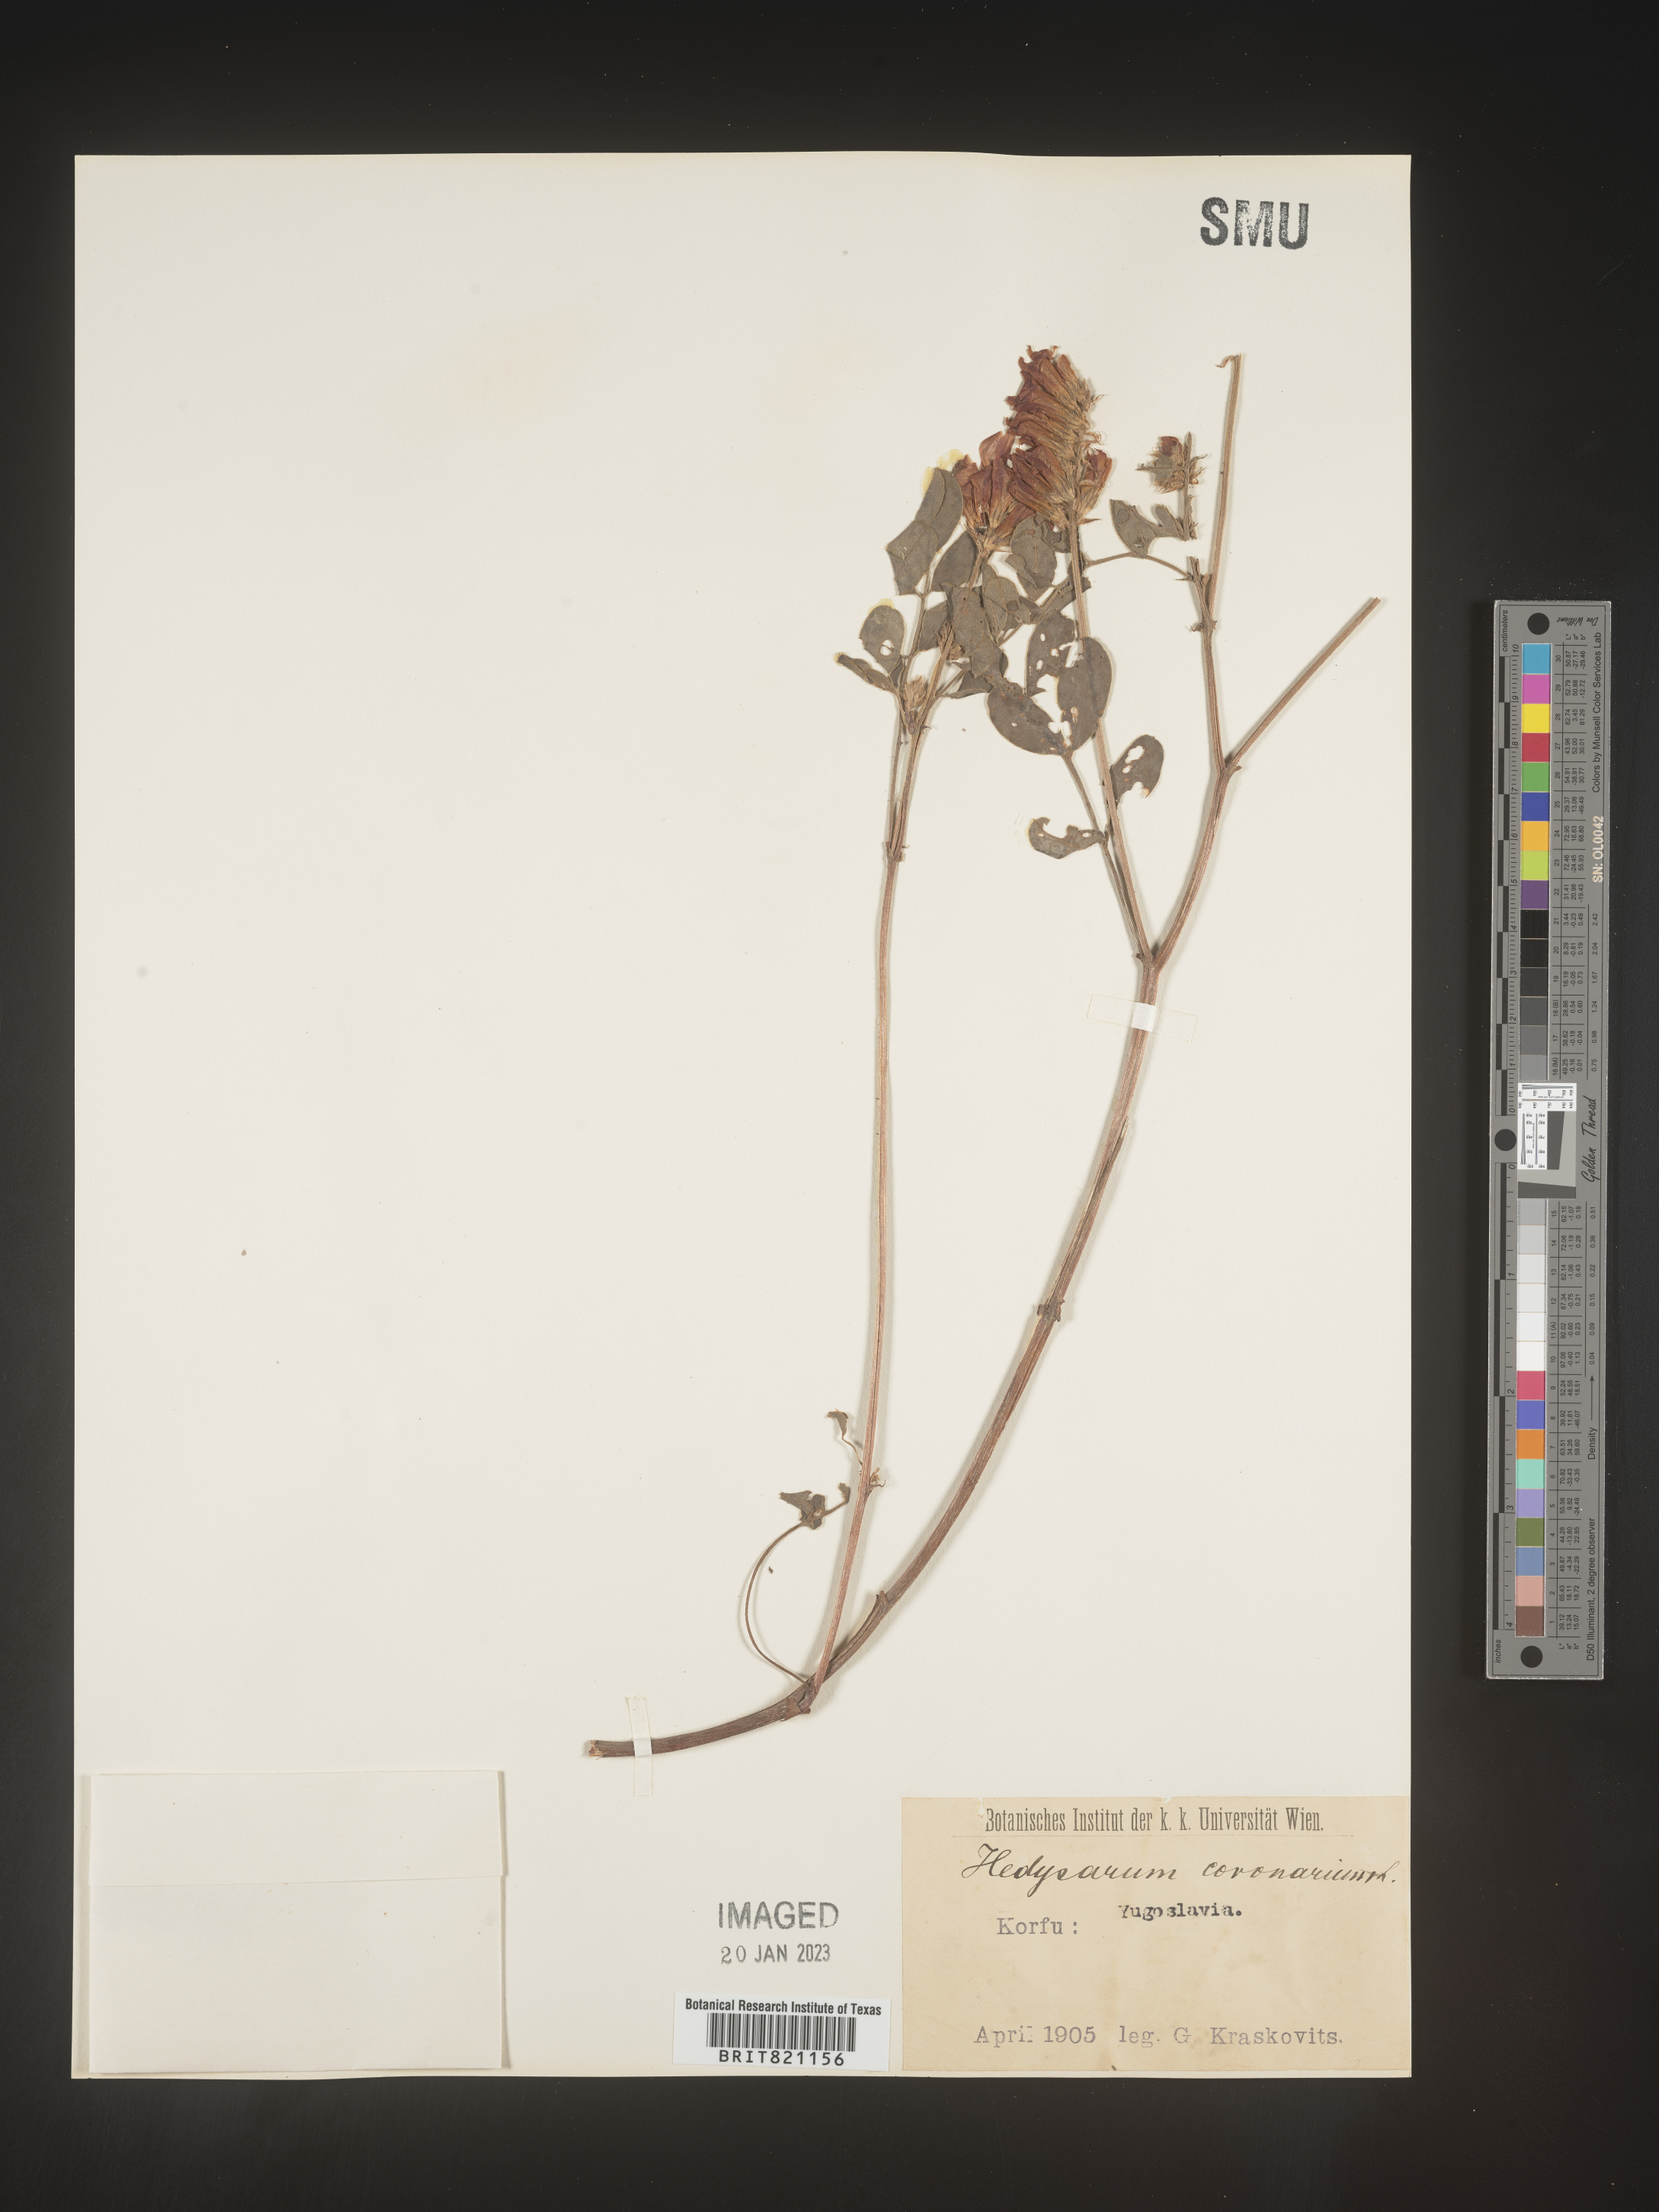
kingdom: Plantae
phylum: Tracheophyta
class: Magnoliopsida
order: Fabales
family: Fabaceae
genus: Hedysarum
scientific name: Hedysarum
